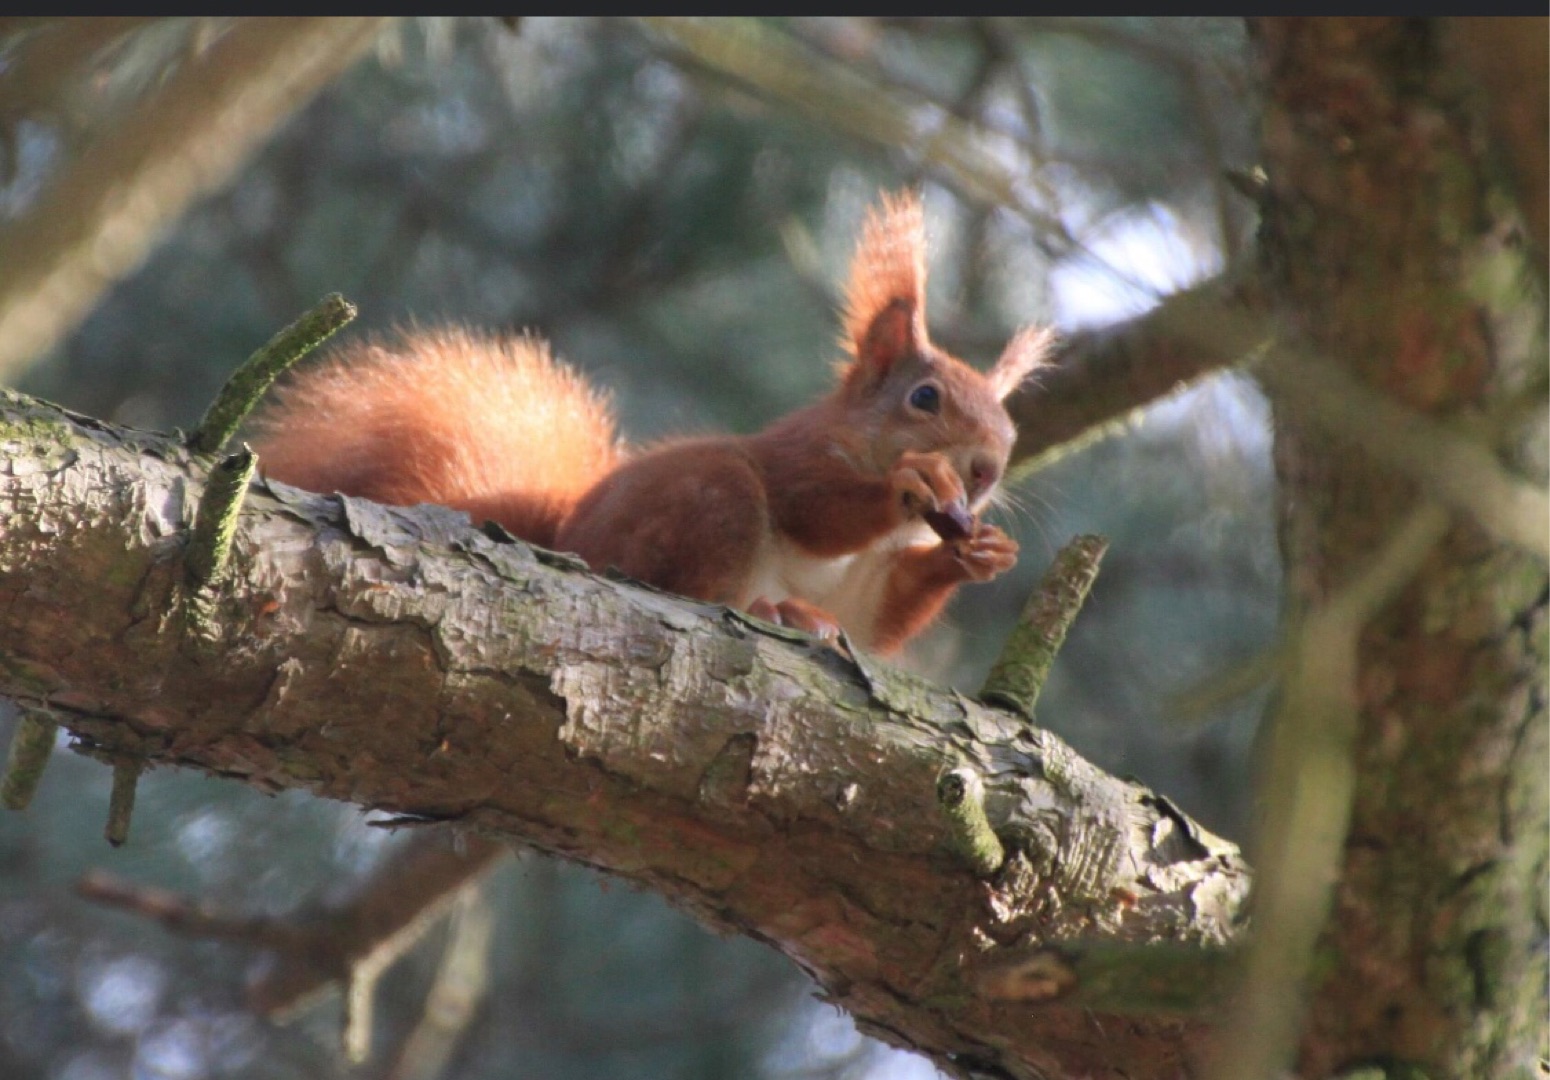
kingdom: Animalia
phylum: Chordata
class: Mammalia
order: Rodentia
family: Sciuridae
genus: Sciurus
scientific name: Sciurus vulgaris
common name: Egern
